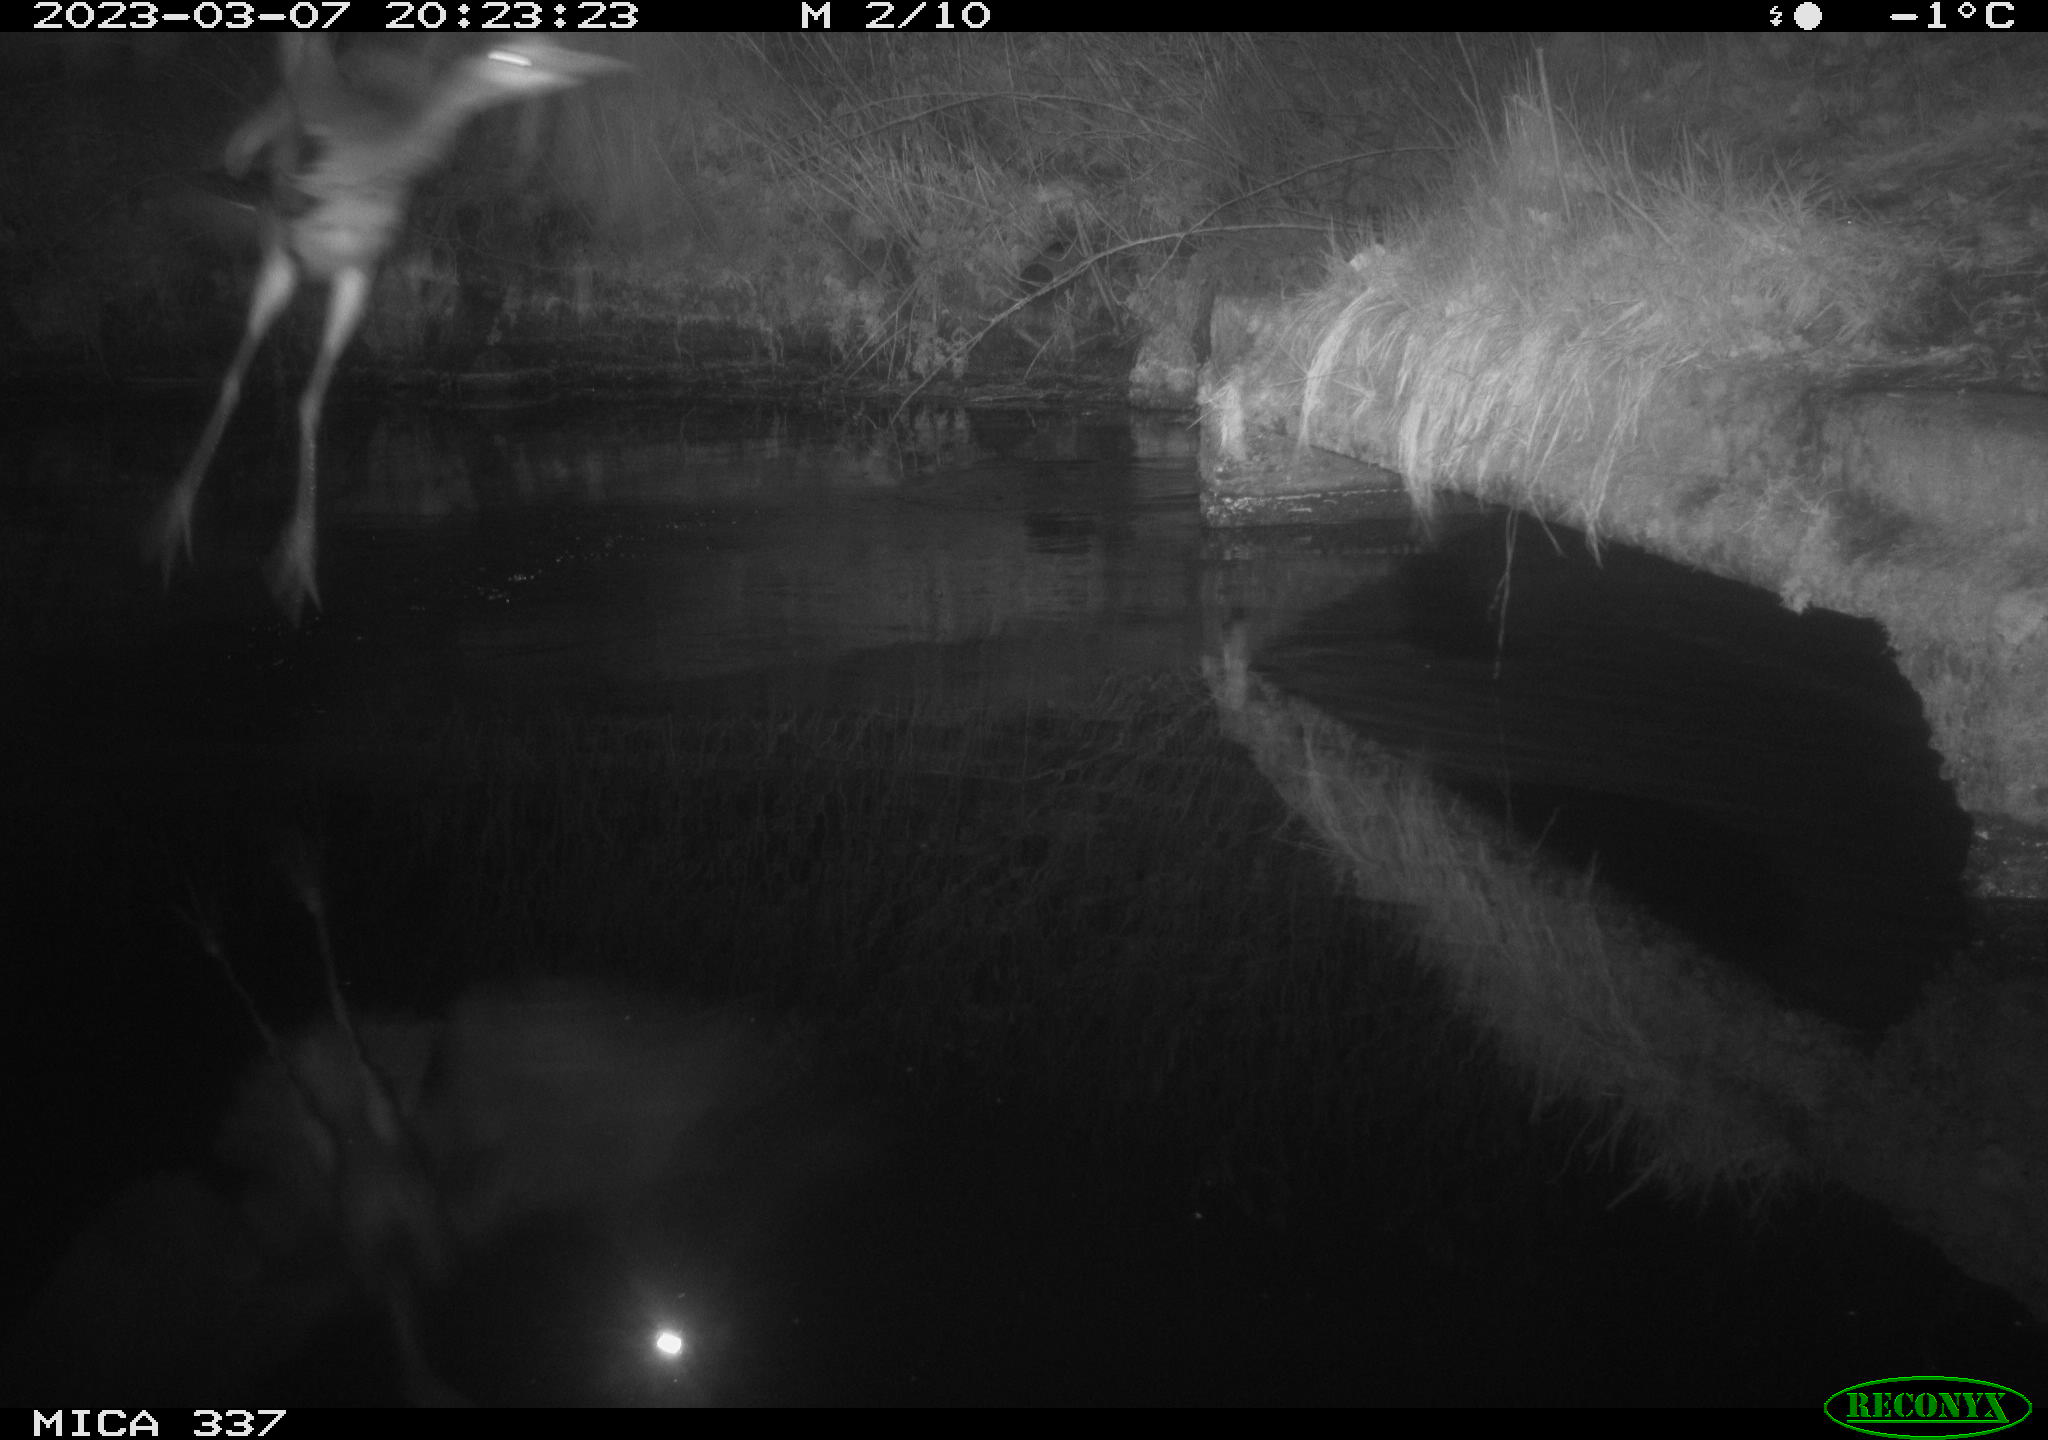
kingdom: Animalia
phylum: Chordata
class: Aves
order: Pelecaniformes
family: Ardeidae
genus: Ardea
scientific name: Ardea cinerea
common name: Grey heron
